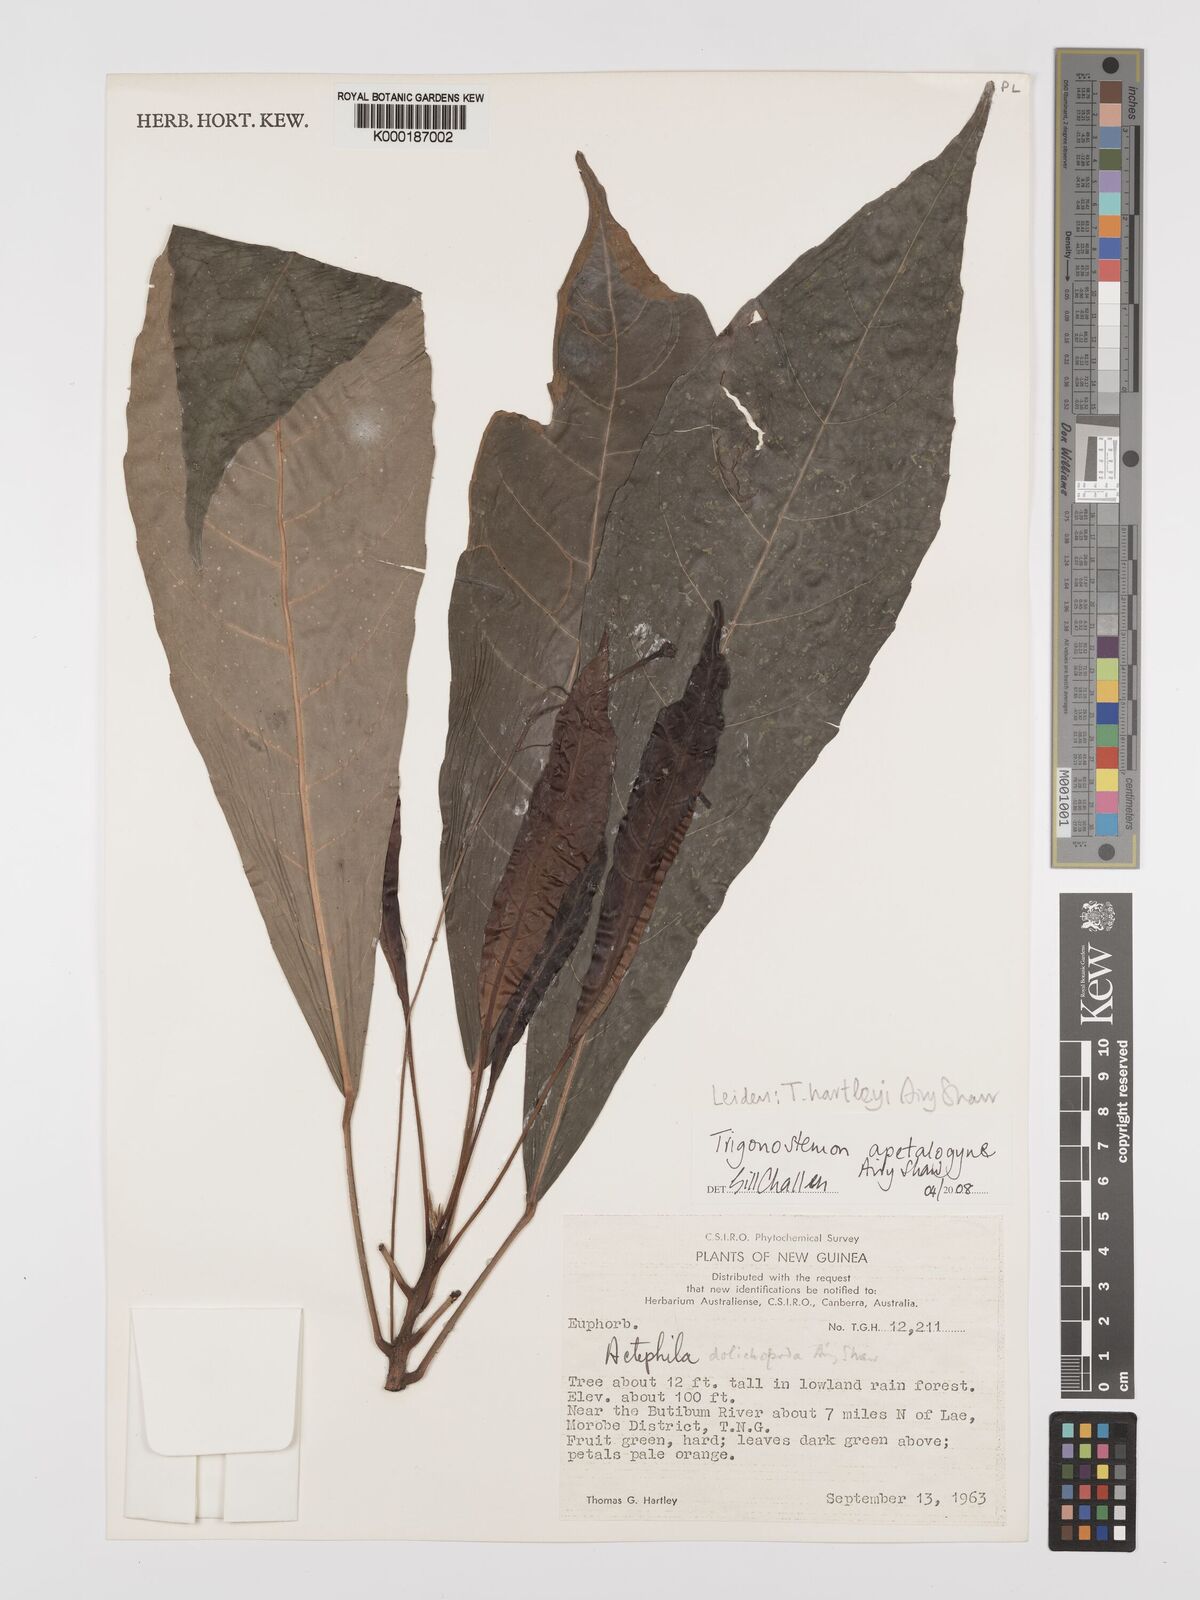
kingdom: Plantae
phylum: Tracheophyta
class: Magnoliopsida
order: Malpighiales
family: Phyllanthaceae
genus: Actephila
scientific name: Actephila dolichopoda
